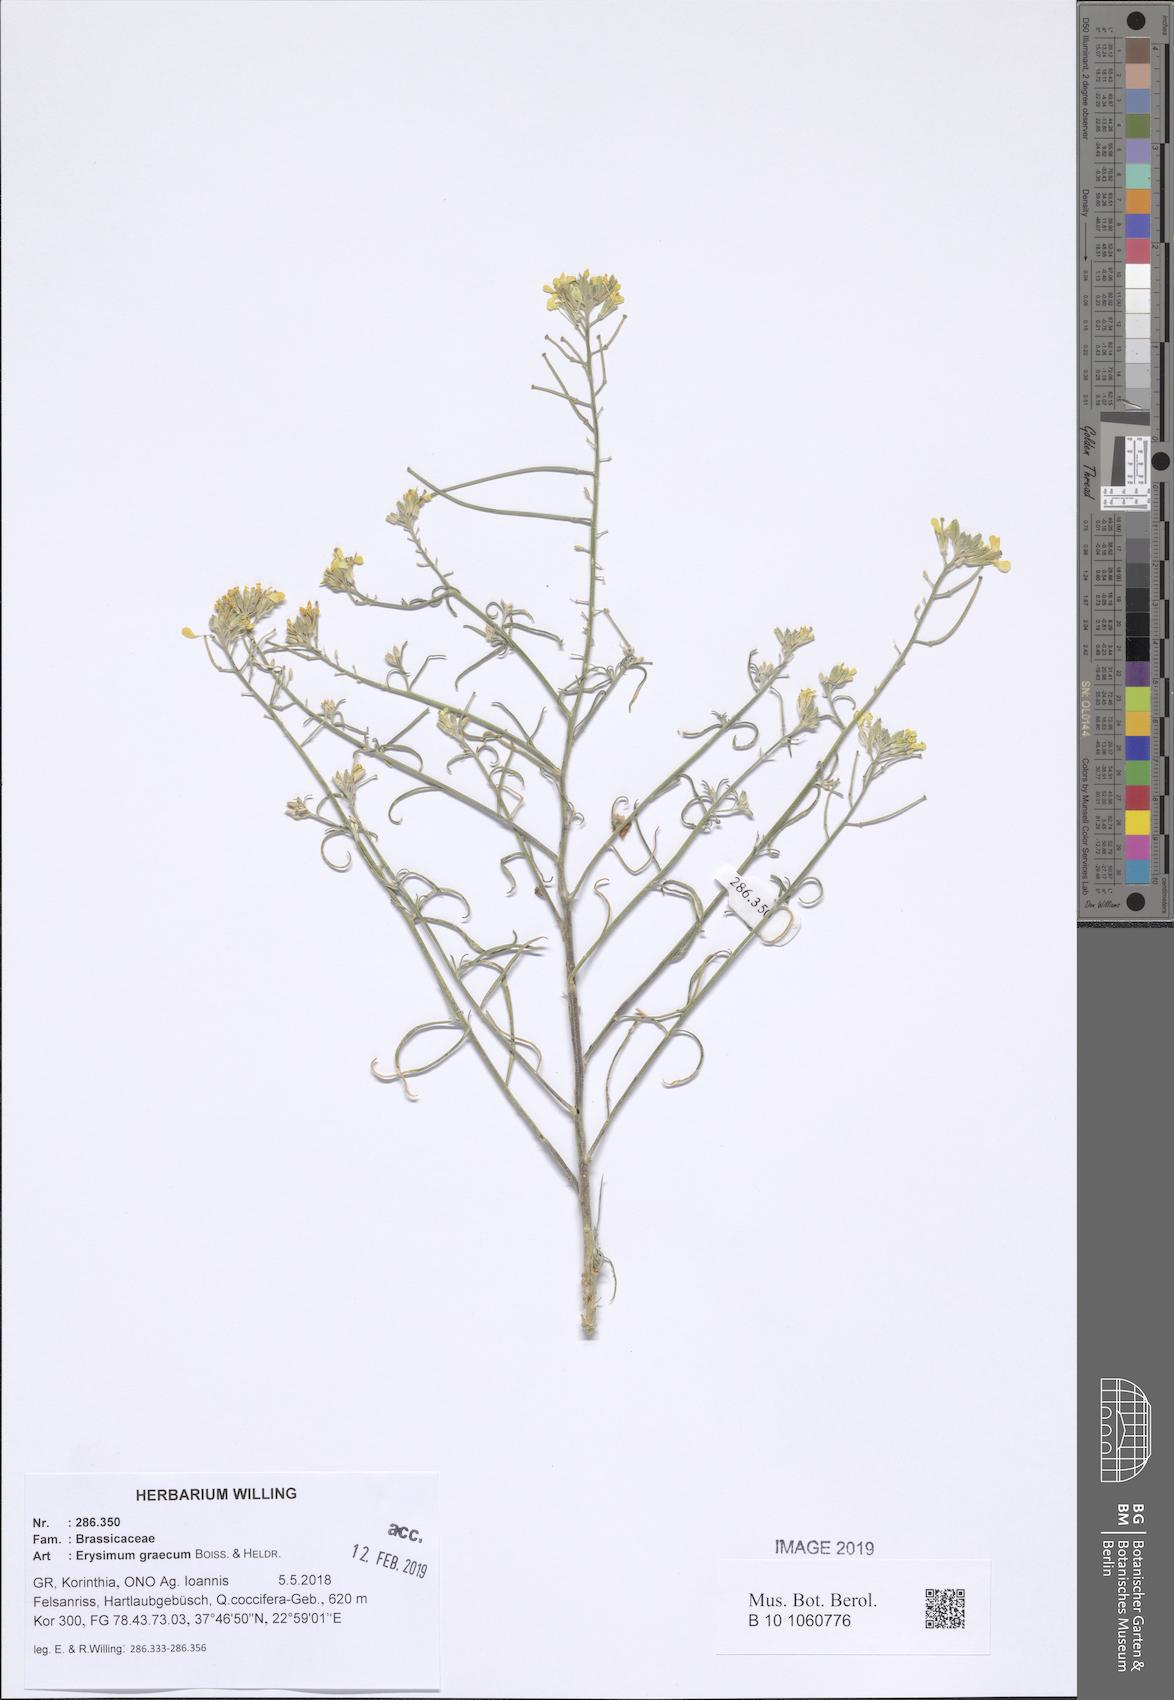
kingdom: Plantae
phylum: Tracheophyta
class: Magnoliopsida
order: Brassicales
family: Brassicaceae
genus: Erysimum
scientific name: Erysimum graecum
